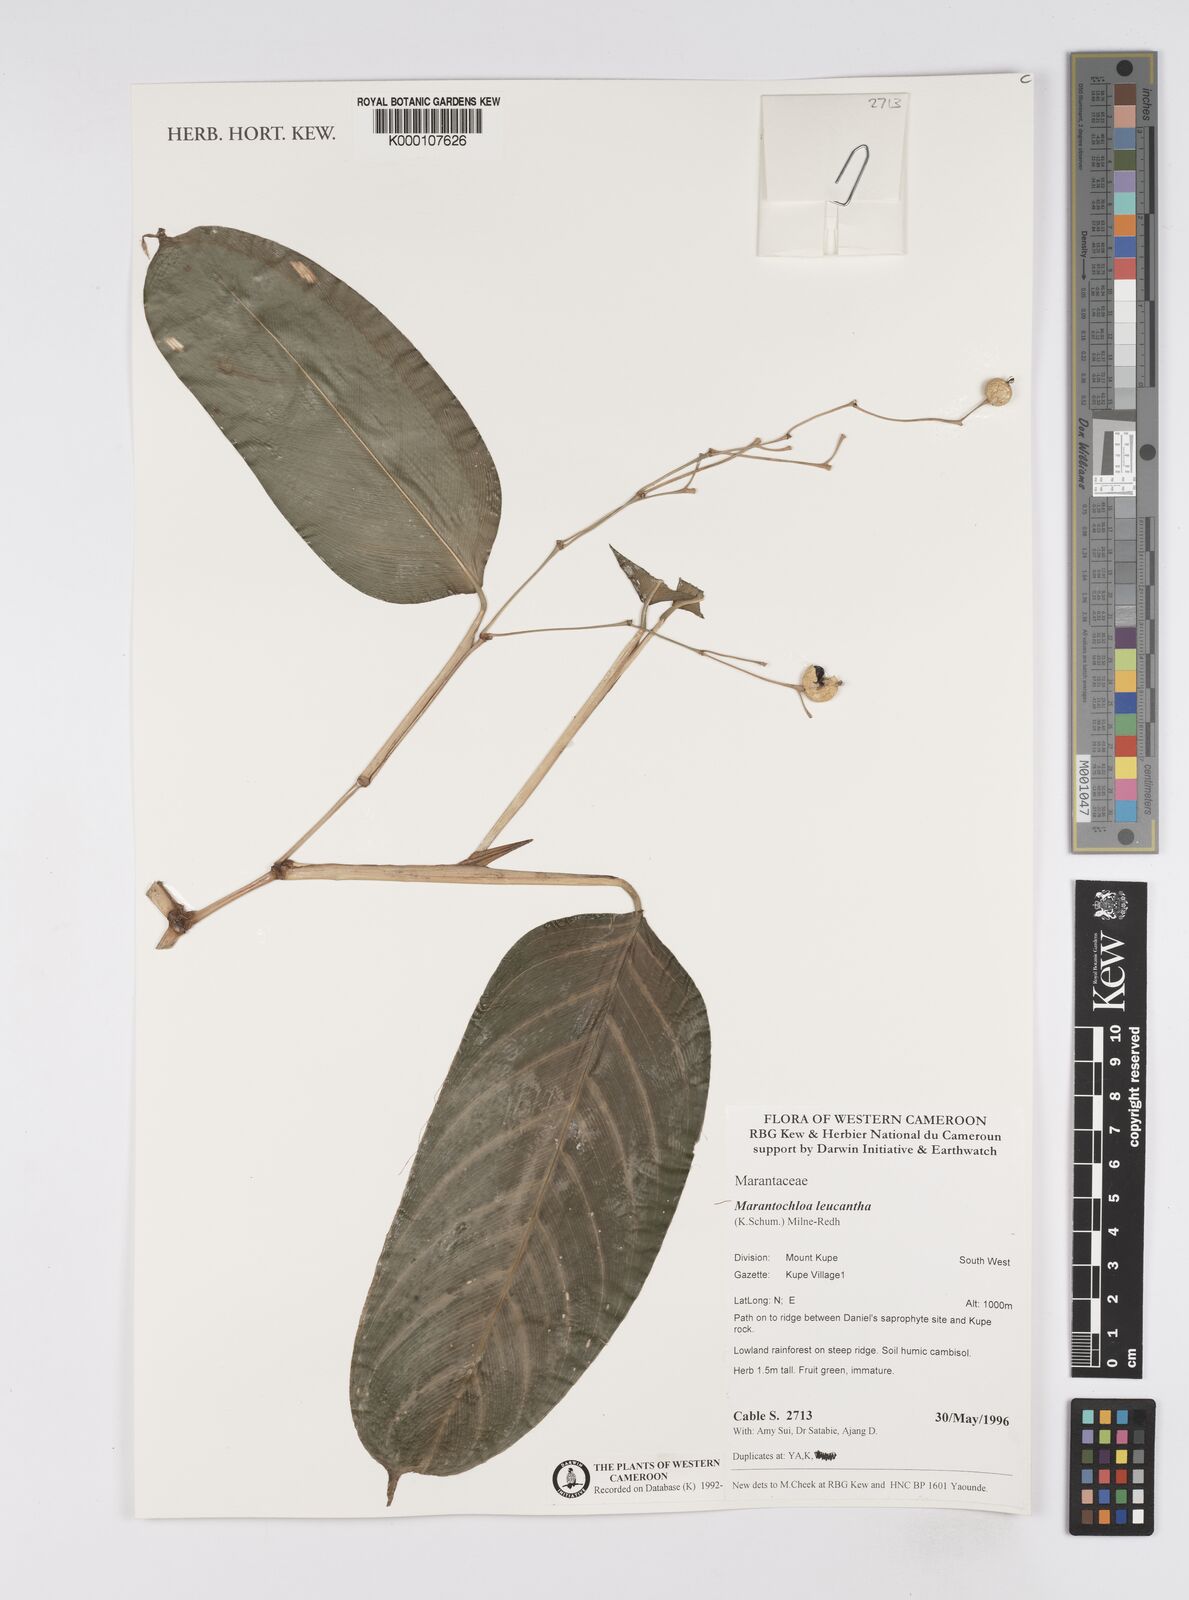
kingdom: Plantae
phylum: Tracheophyta
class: Liliopsida
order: Zingiberales
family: Marantaceae
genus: Marantochloa
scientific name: Marantochloa leucantha
